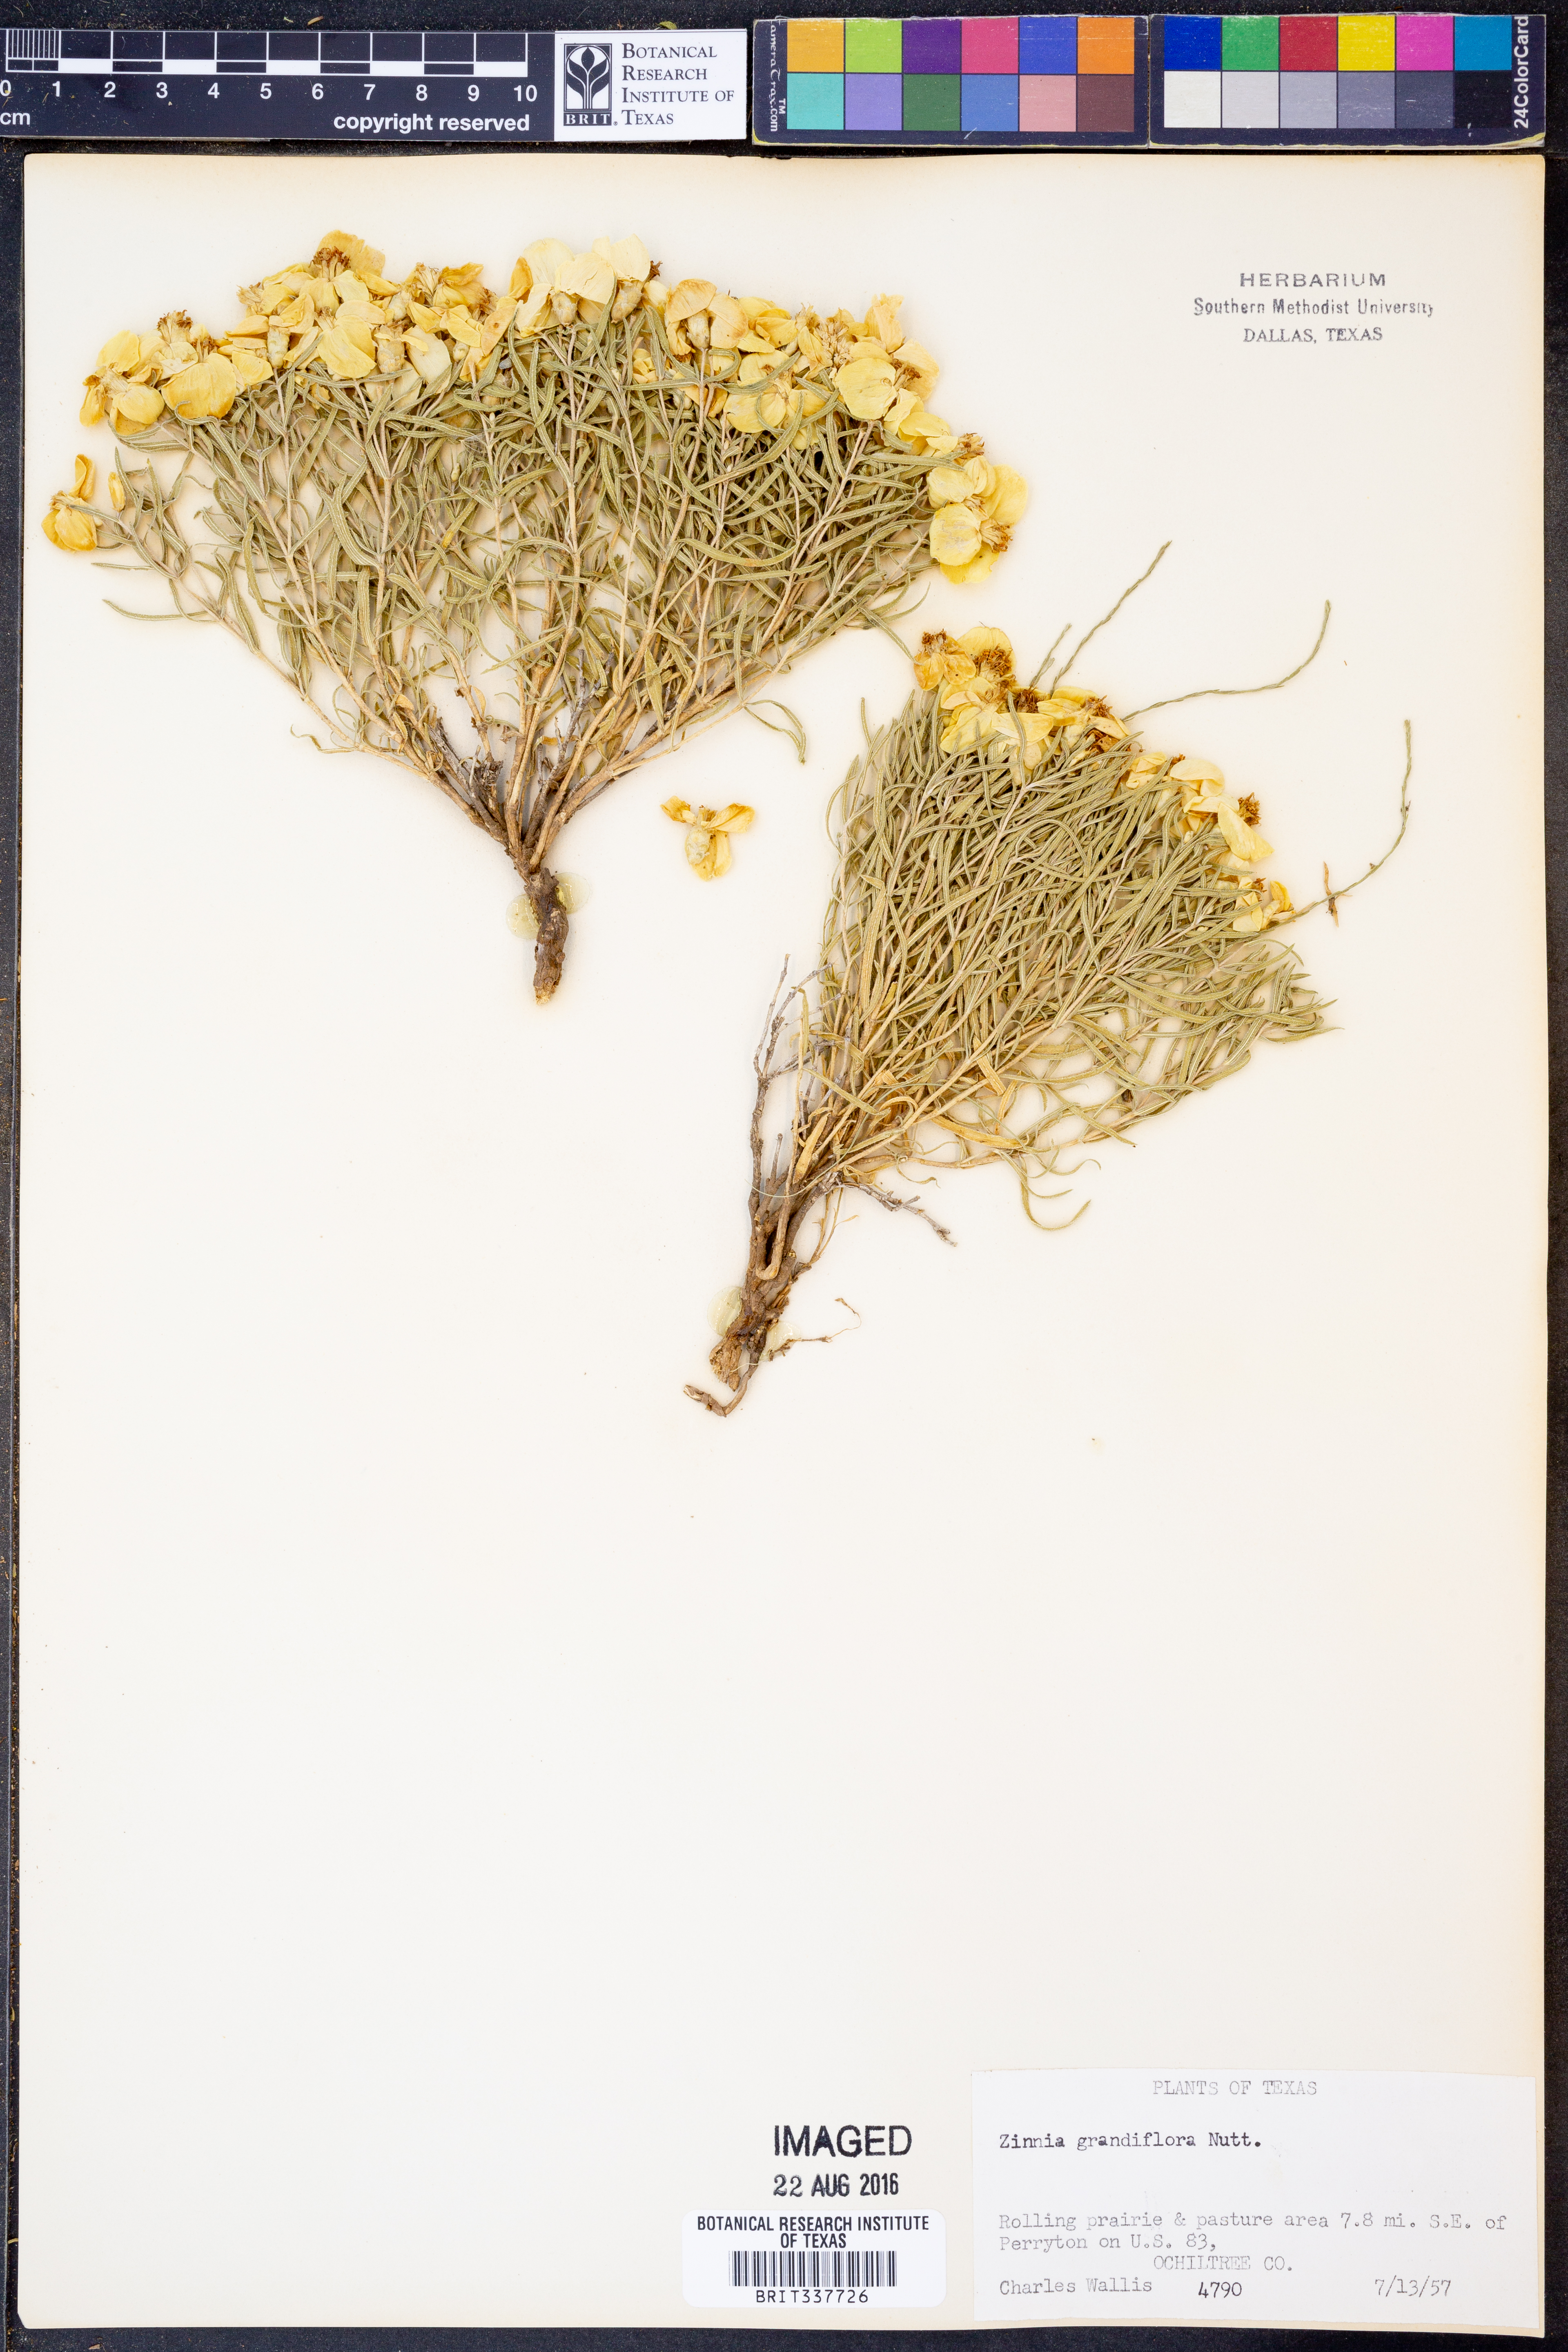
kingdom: Plantae
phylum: Tracheophyta
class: Magnoliopsida
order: Asterales
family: Asteraceae
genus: Zinnia
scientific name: Zinnia grandiflora
